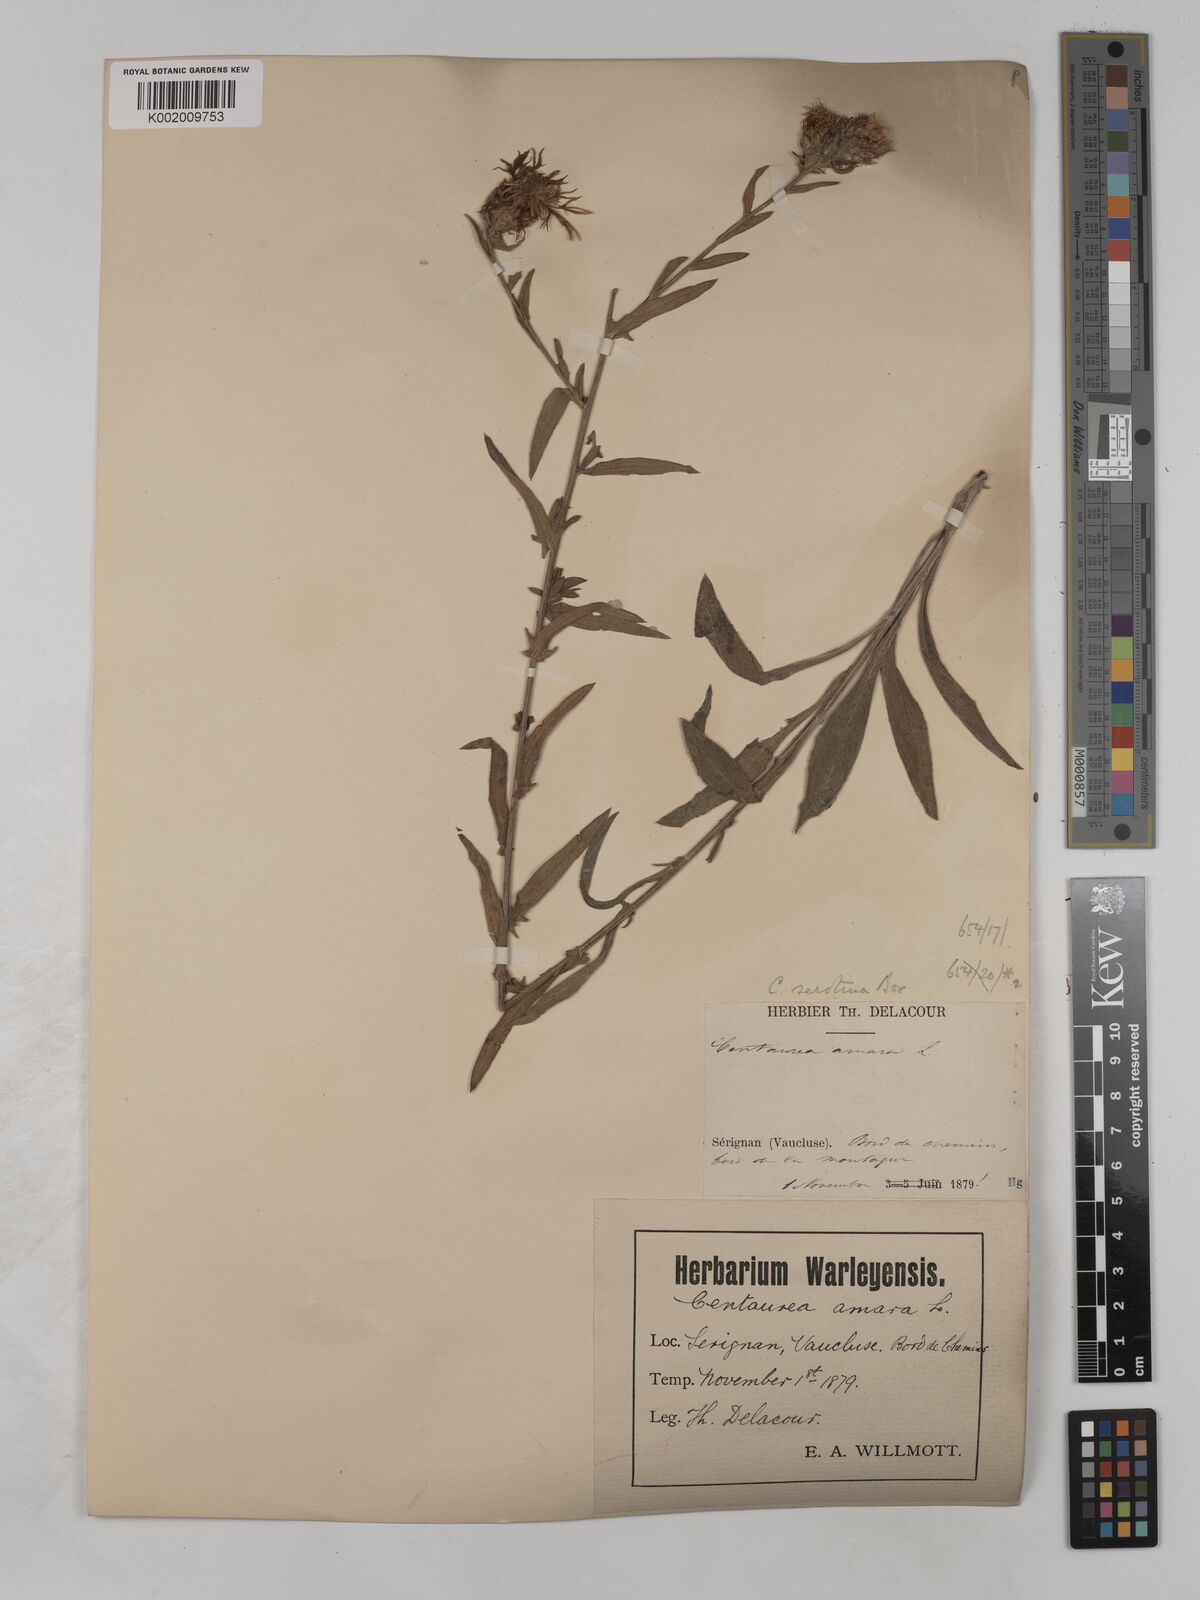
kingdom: Plantae
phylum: Tracheophyta
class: Magnoliopsida
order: Asterales
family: Asteraceae
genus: Centaurea
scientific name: Centaurea timbalii
